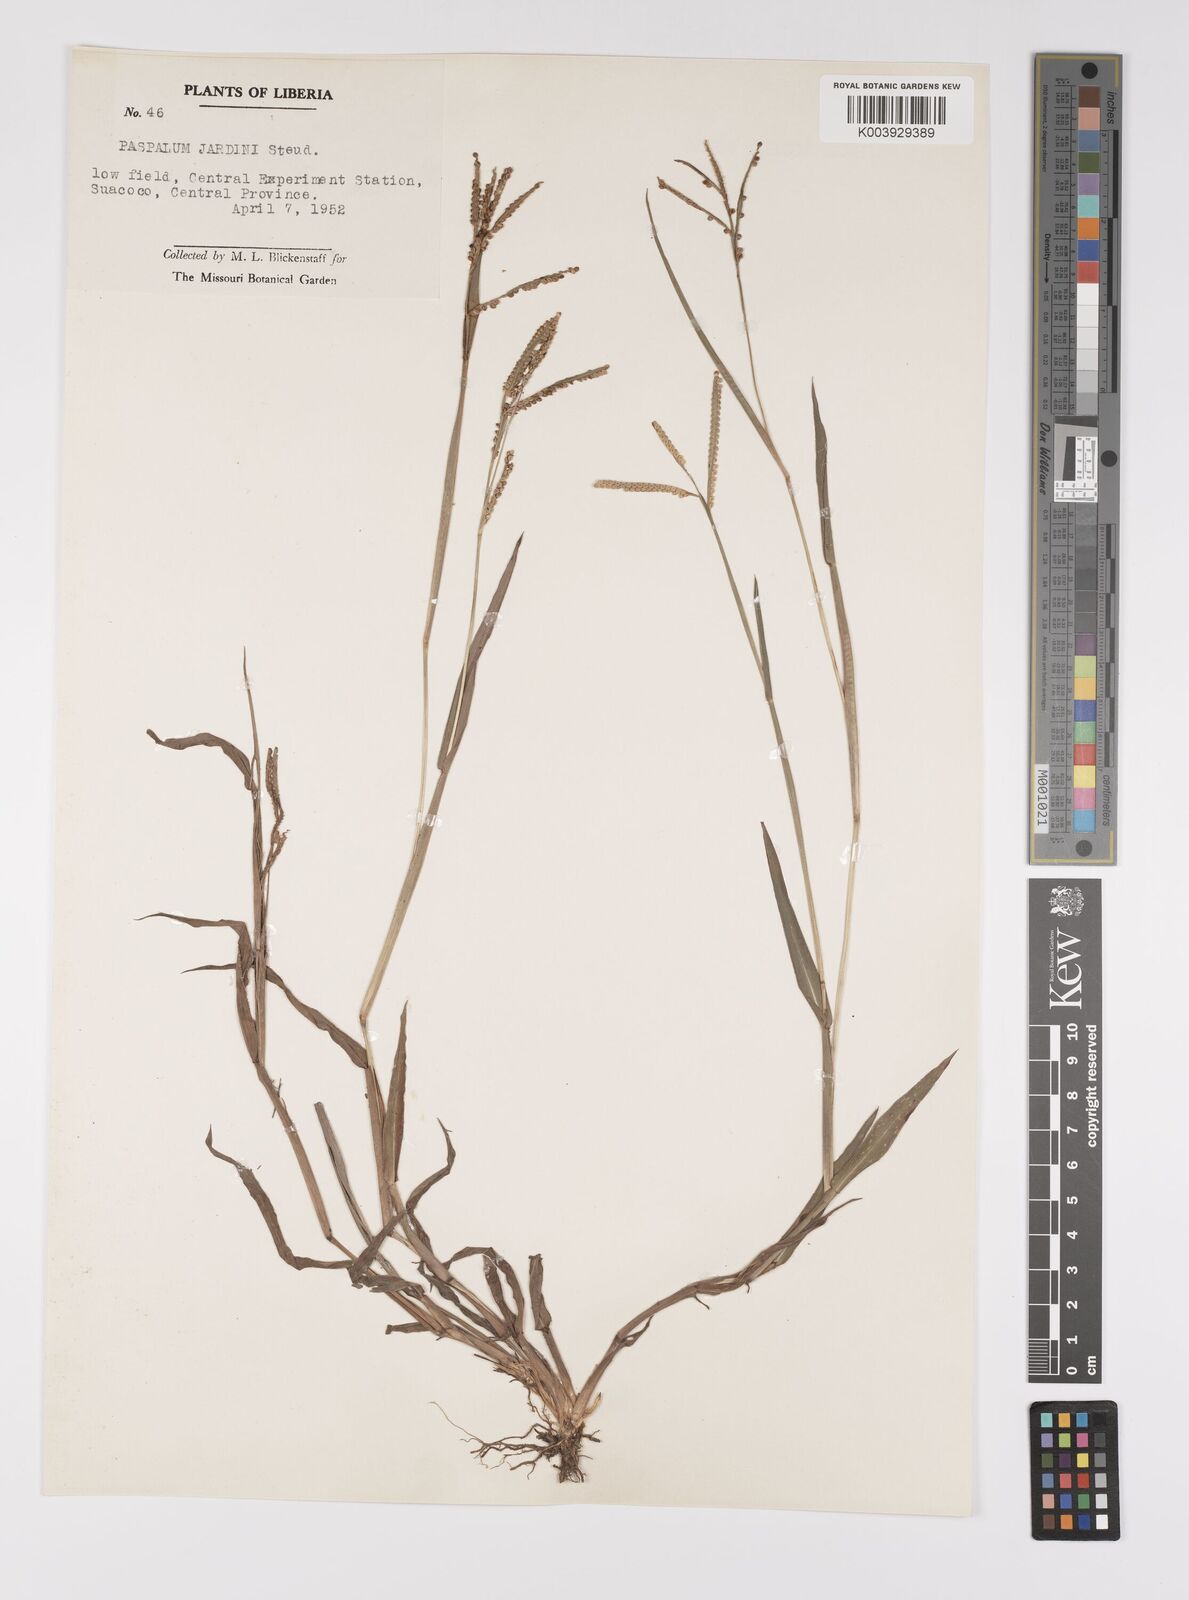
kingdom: Plantae
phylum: Tracheophyta
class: Liliopsida
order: Poales
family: Poaceae
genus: Paspalum
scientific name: Paspalum scrobiculatum
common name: Kodo millet
